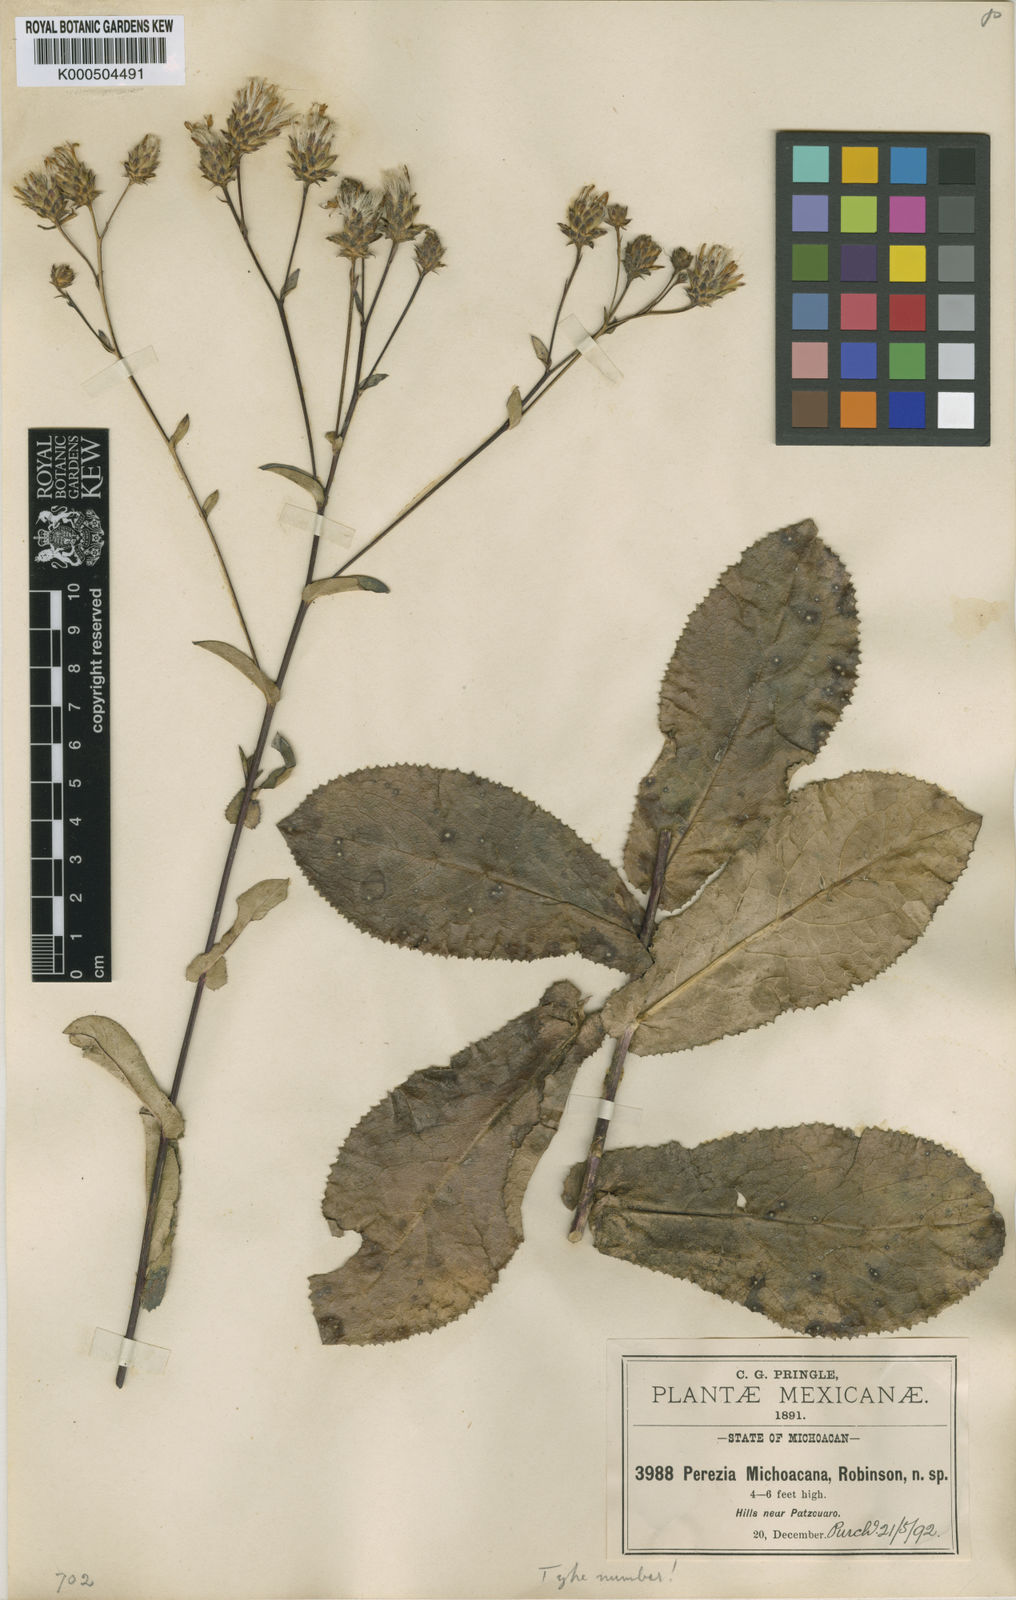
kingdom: Plantae
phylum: Tracheophyta
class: Magnoliopsida
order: Asterales
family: Asteraceae
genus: Acourtia
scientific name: Acourtia michoacana
